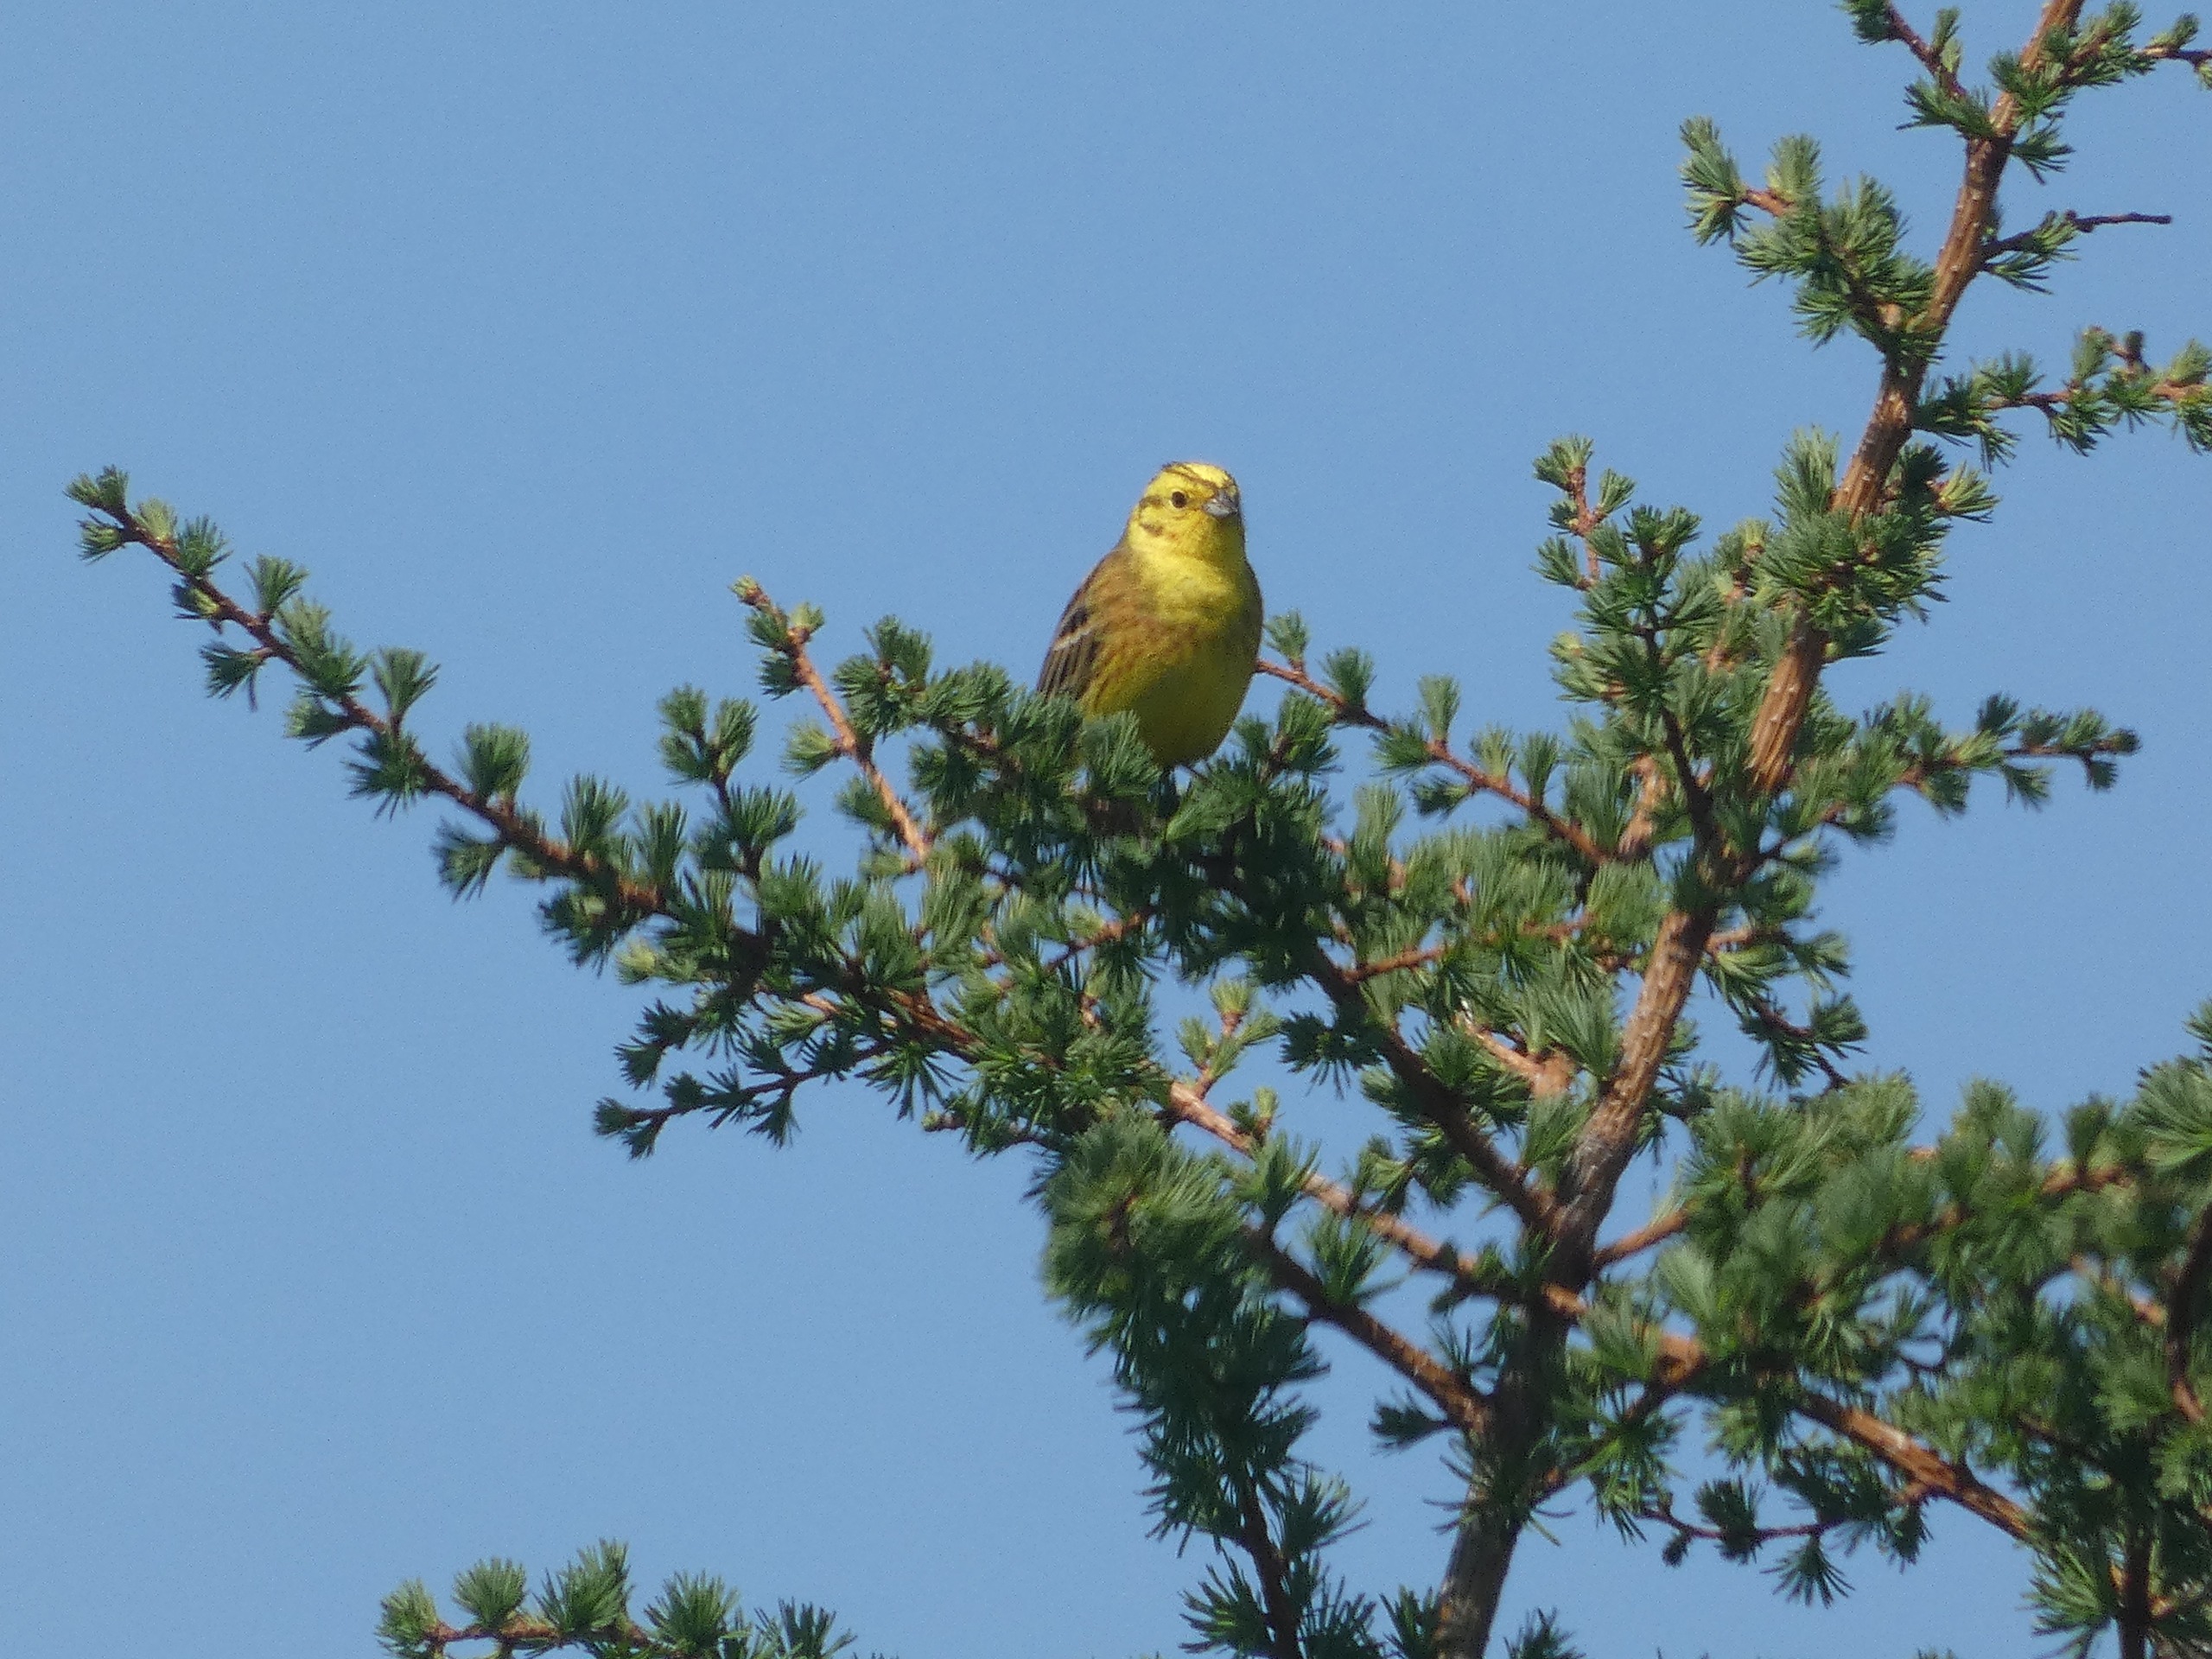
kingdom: Animalia
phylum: Chordata
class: Aves
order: Passeriformes
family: Emberizidae
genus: Emberiza
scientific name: Emberiza citrinella
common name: Gulspurv
